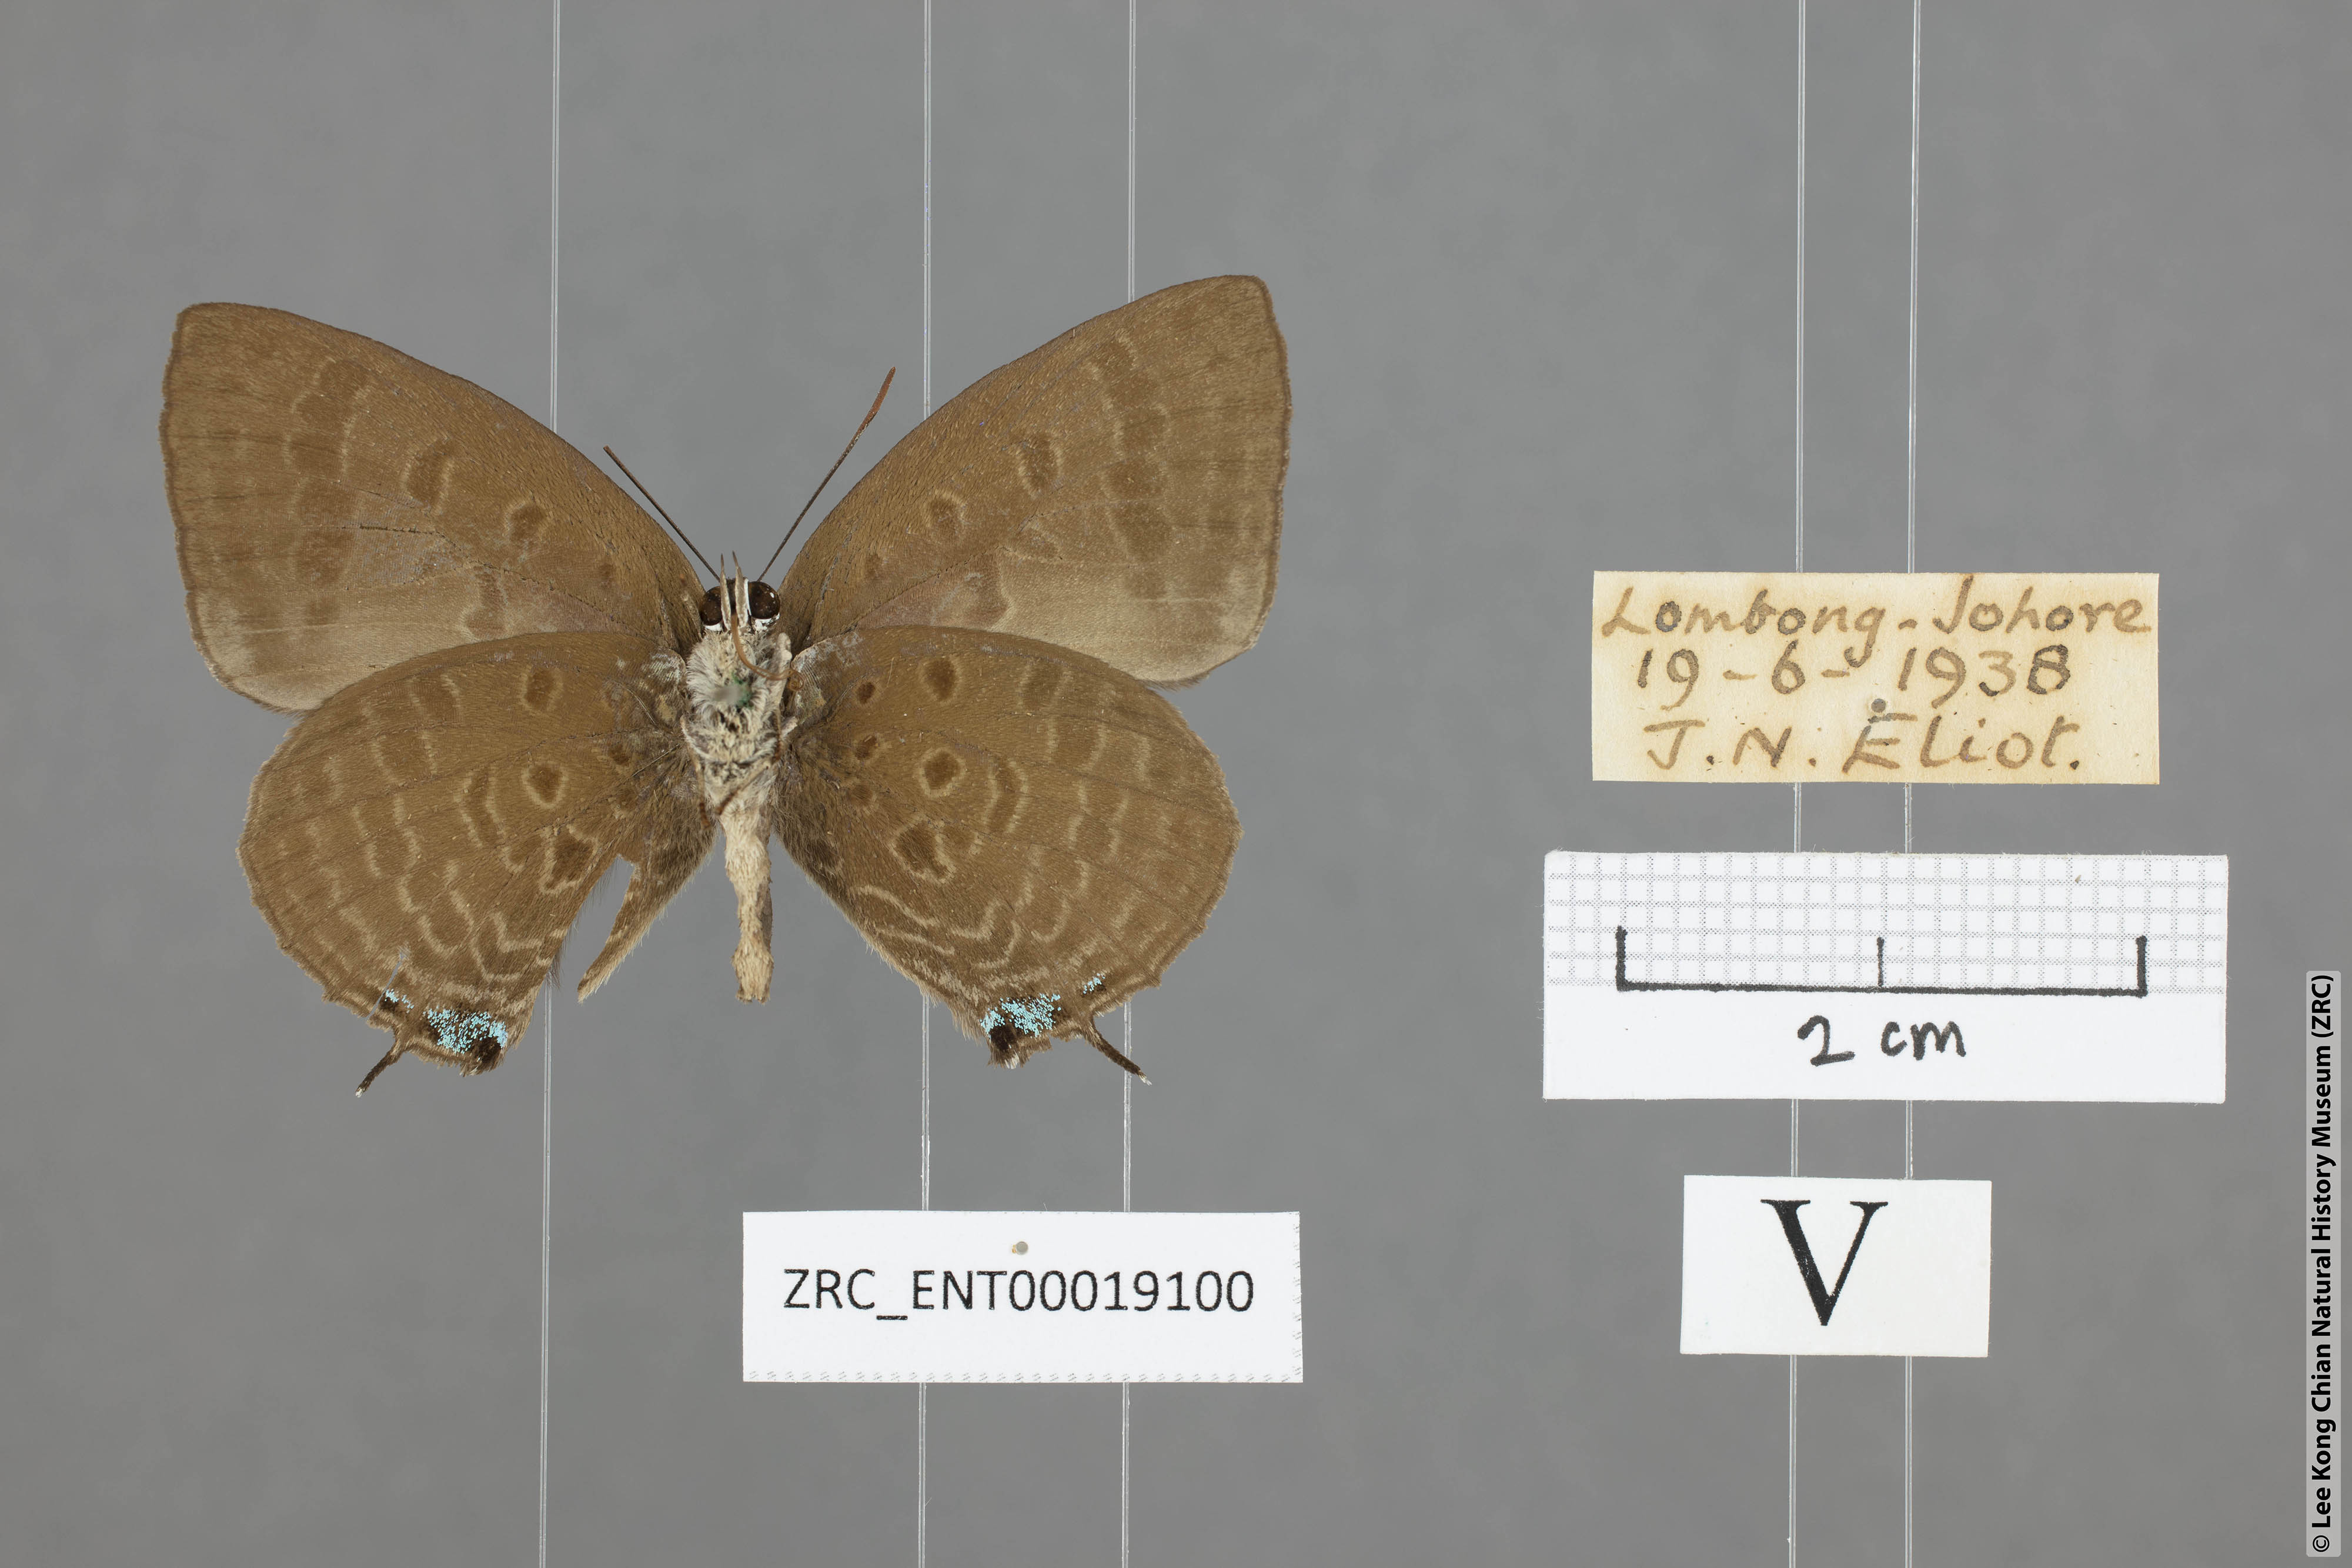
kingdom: Animalia
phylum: Arthropoda
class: Insecta
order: Lepidoptera
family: Lycaenidae
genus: Arhopala
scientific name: Arhopala allata
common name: Rosy oakblue
